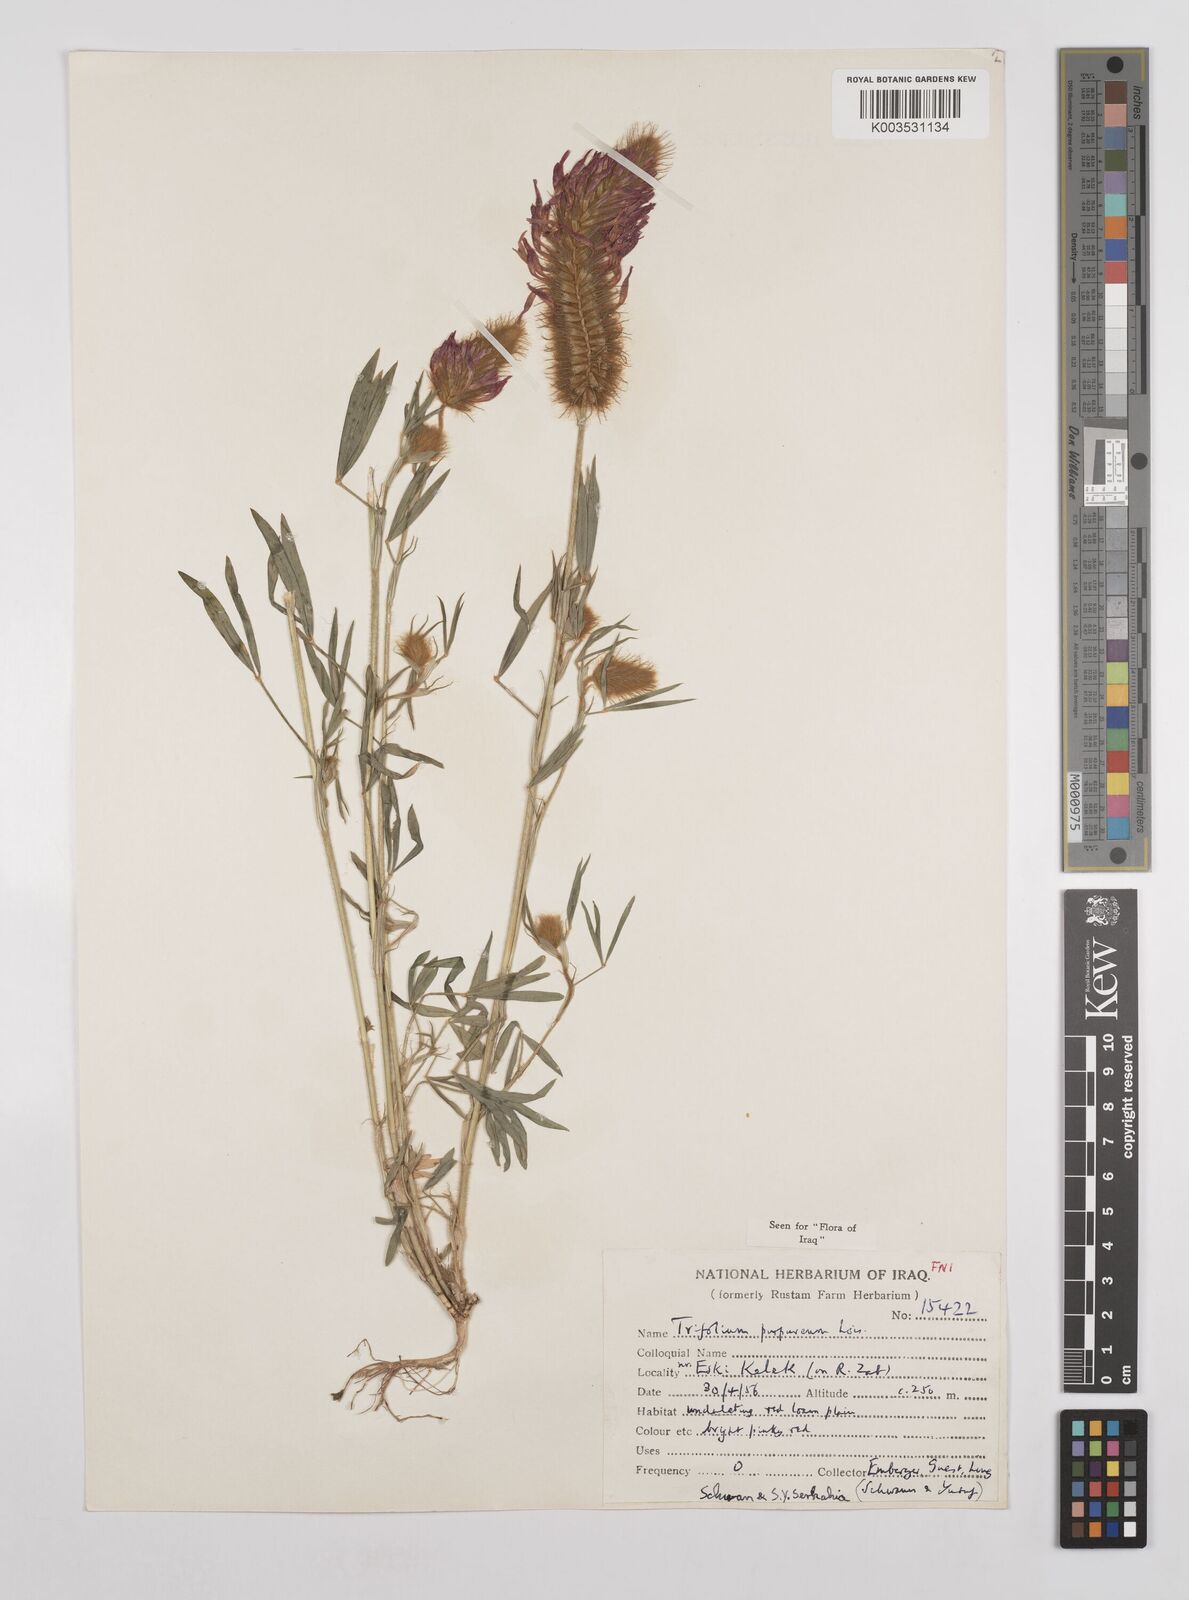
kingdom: Plantae
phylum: Tracheophyta
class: Magnoliopsida
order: Fabales
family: Fabaceae
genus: Trifolium
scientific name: Trifolium purpureum
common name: Purple clover
